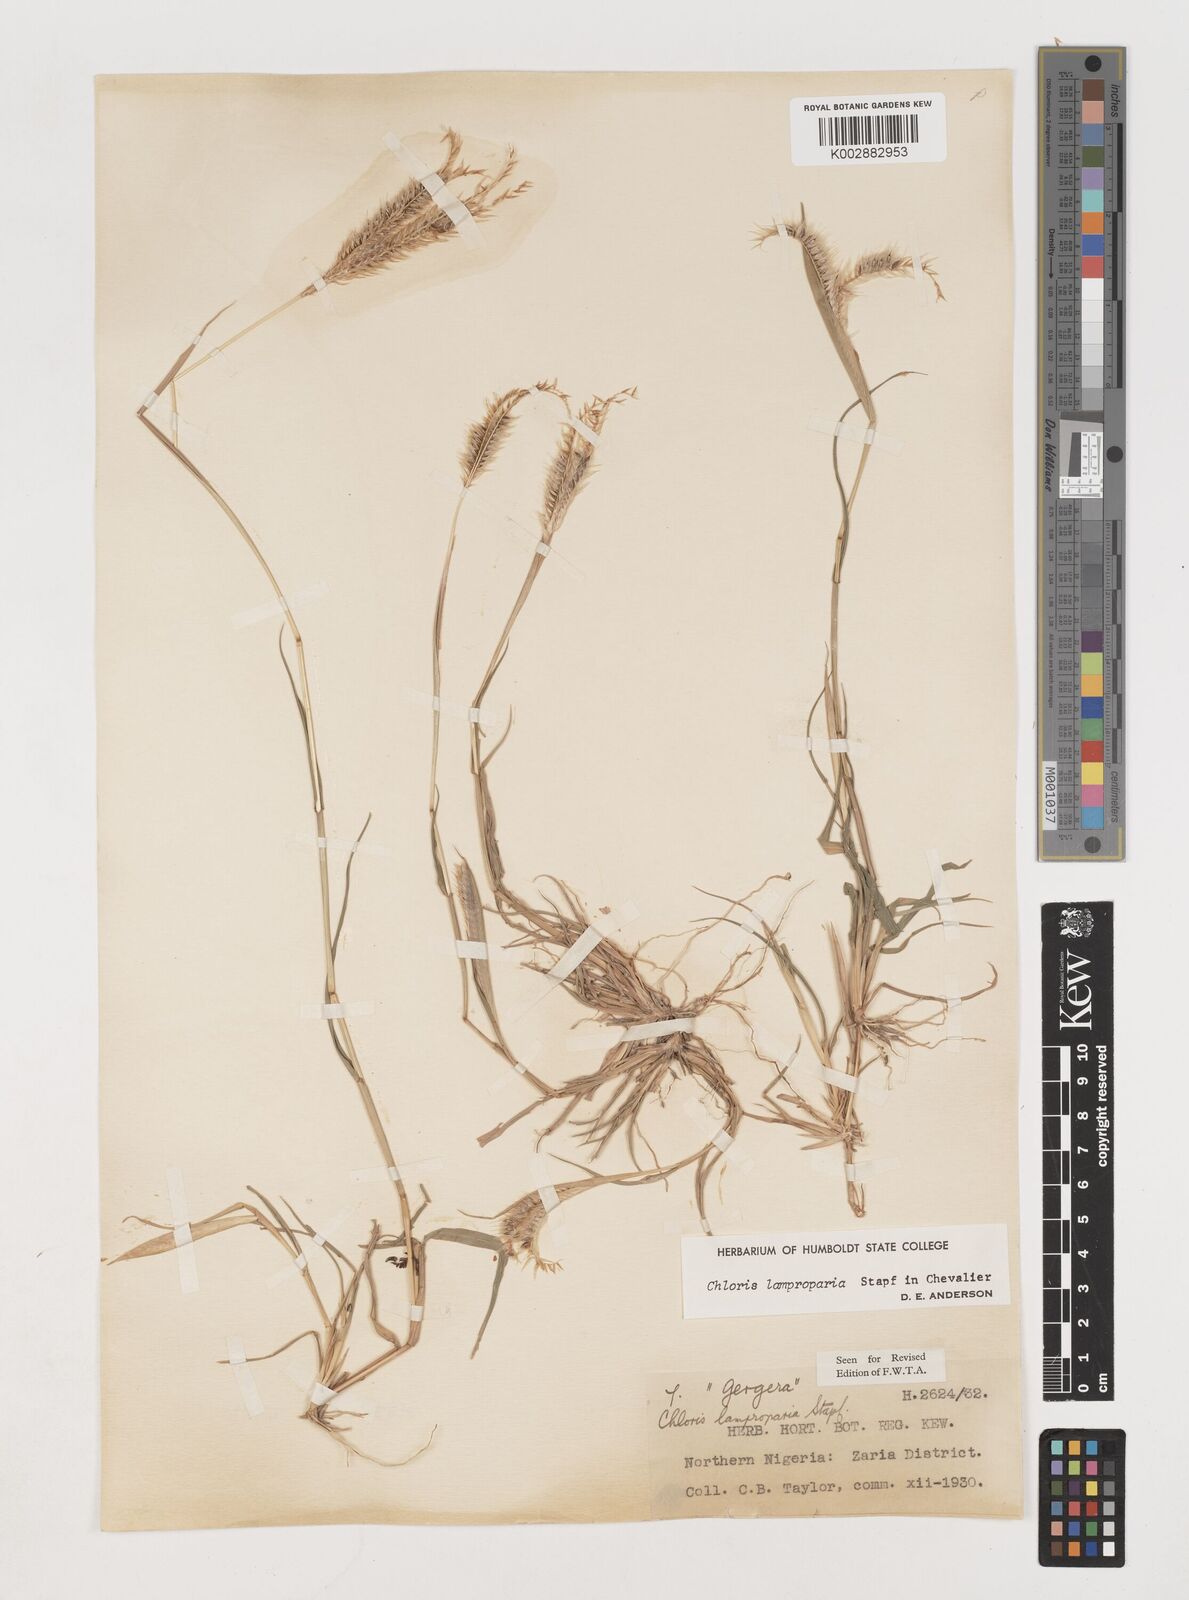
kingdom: Plantae
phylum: Tracheophyta
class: Liliopsida
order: Poales
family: Poaceae
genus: Stapfochloa
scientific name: Stapfochloa lamproparia
